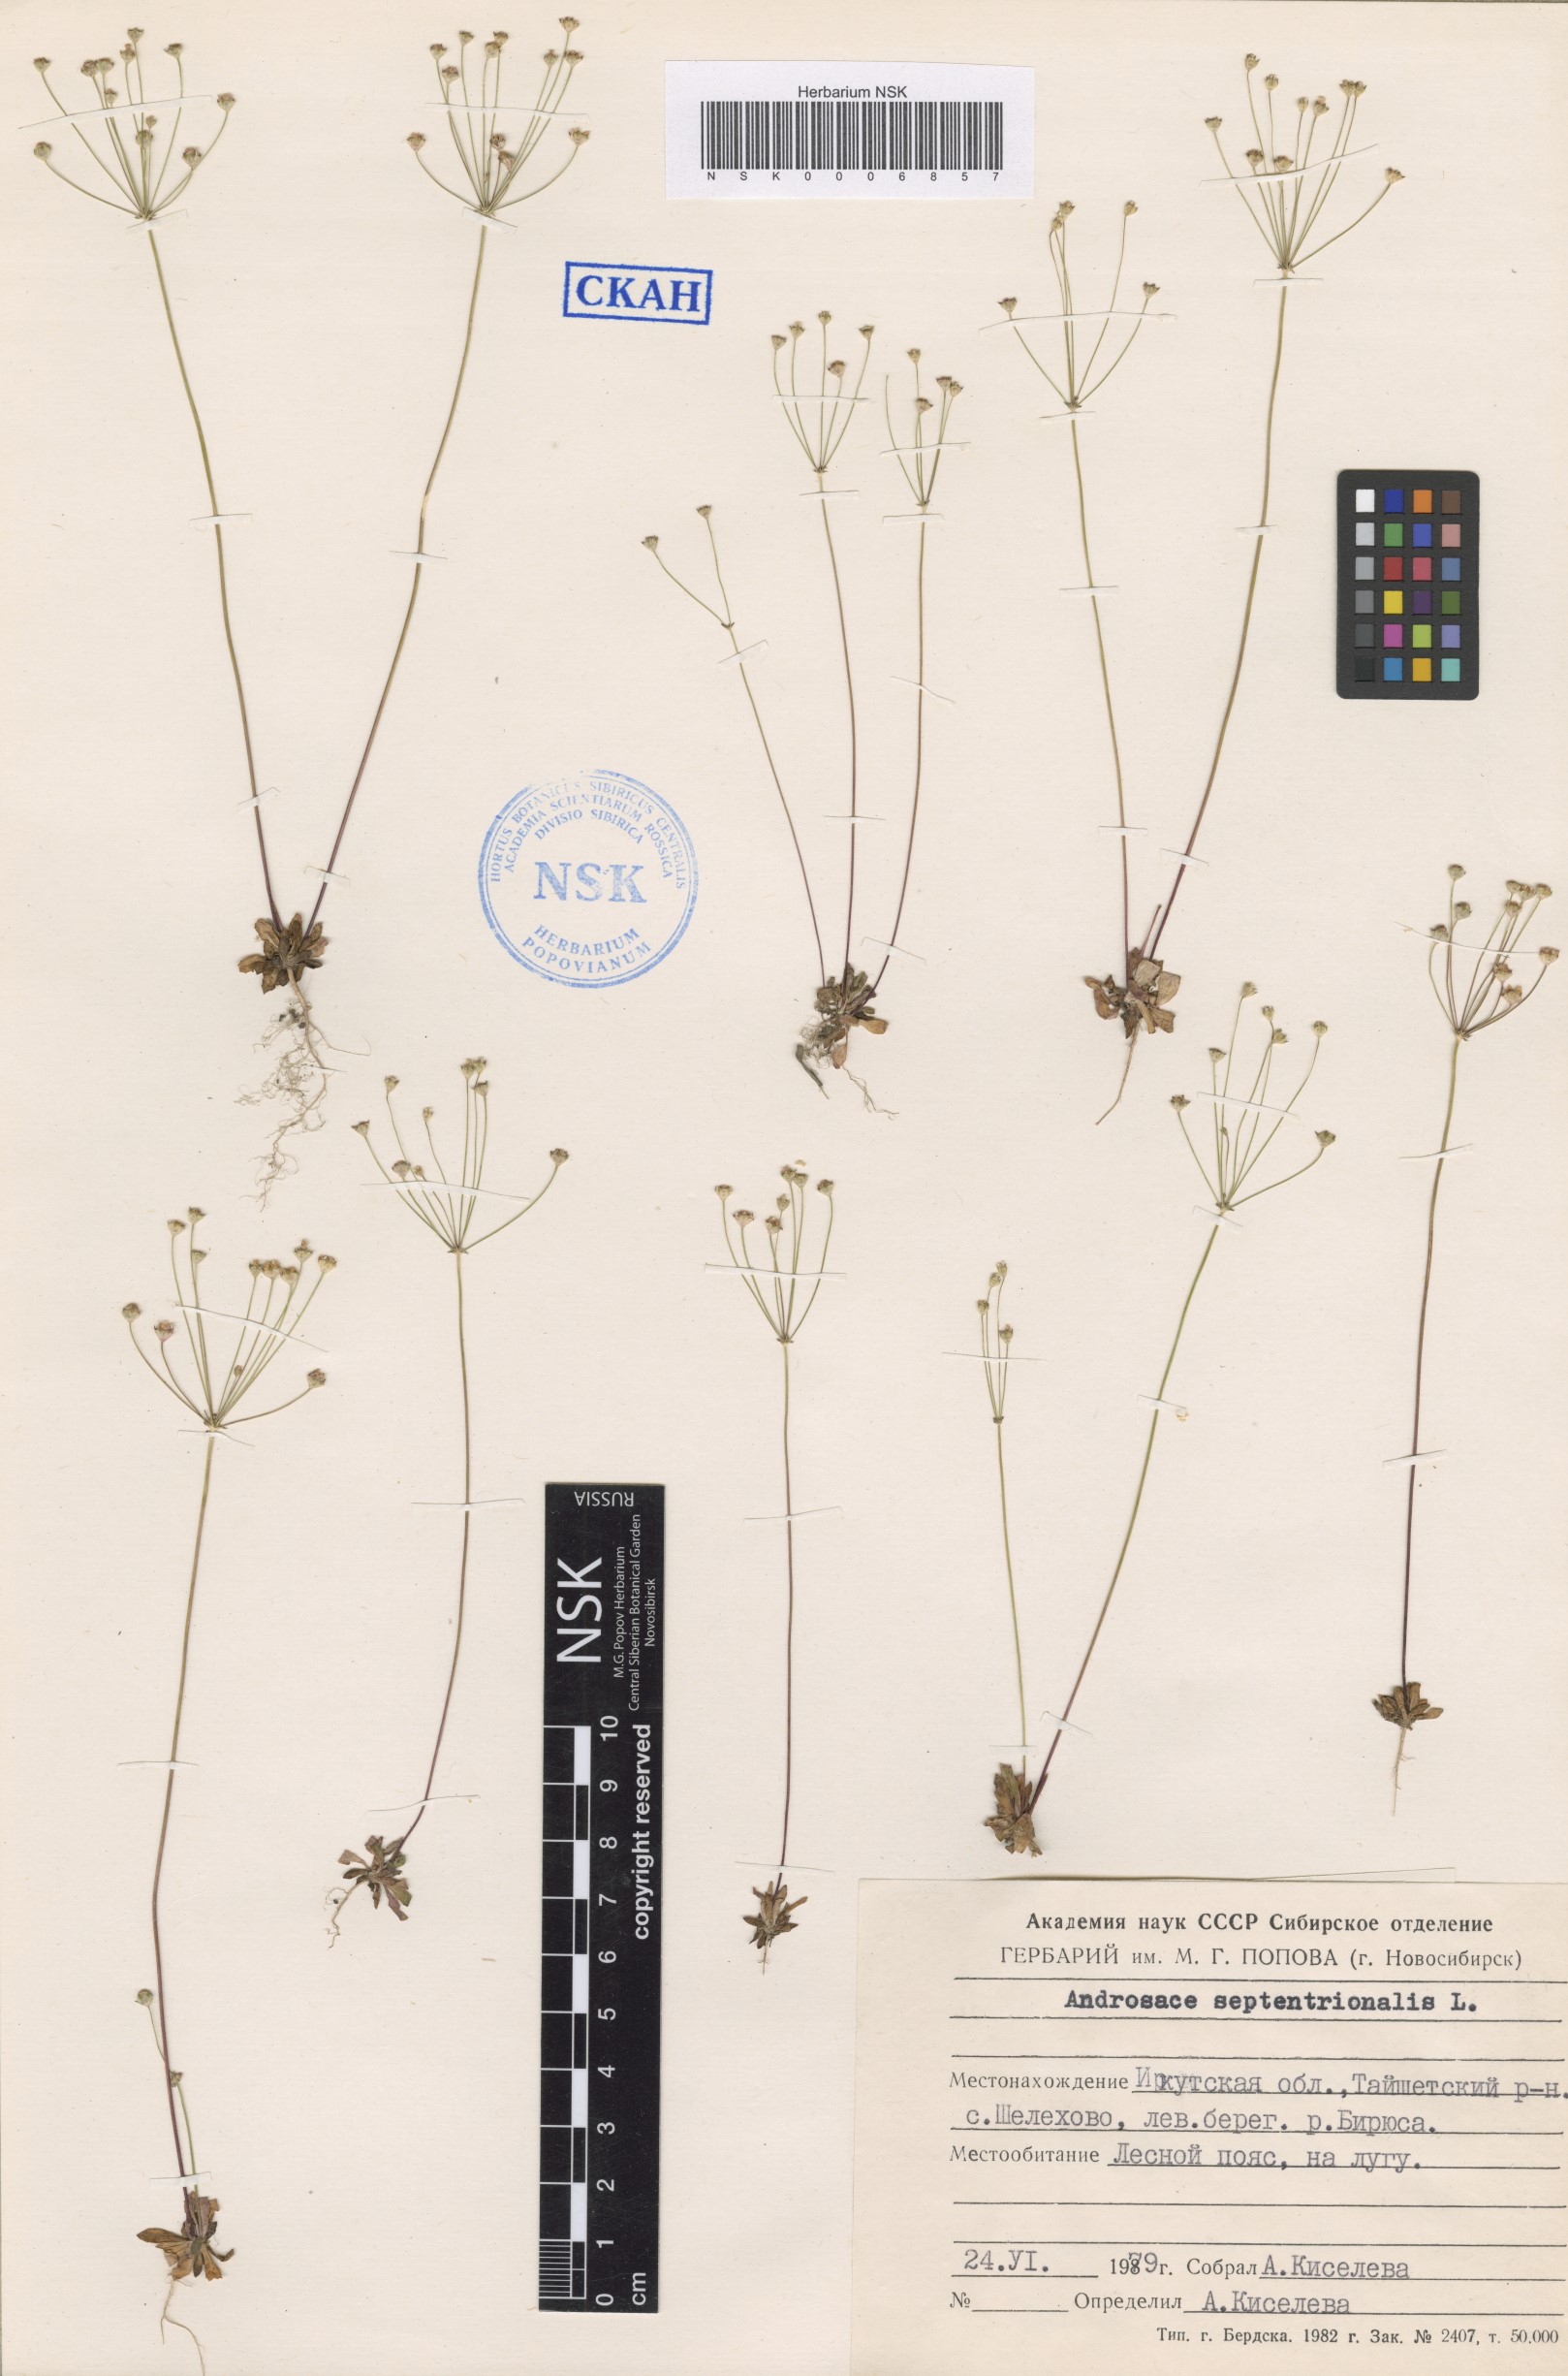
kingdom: Plantae
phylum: Tracheophyta
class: Magnoliopsida
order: Ericales
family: Primulaceae
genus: Androsace
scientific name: Androsace septentrionalis
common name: Hairy northern fairy-candelabra
